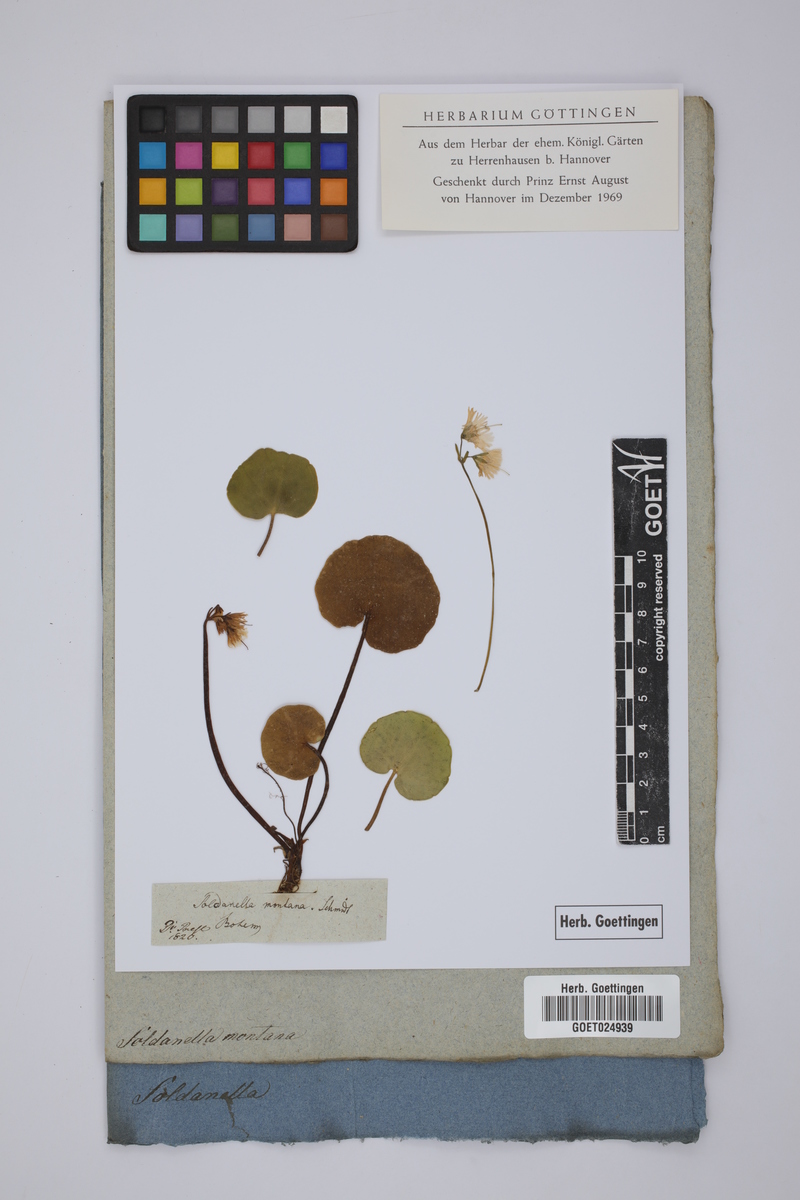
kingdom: Plantae
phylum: Tracheophyta
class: Magnoliopsida
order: Ericales
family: Primulaceae
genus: Soldanella
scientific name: Soldanella montana
